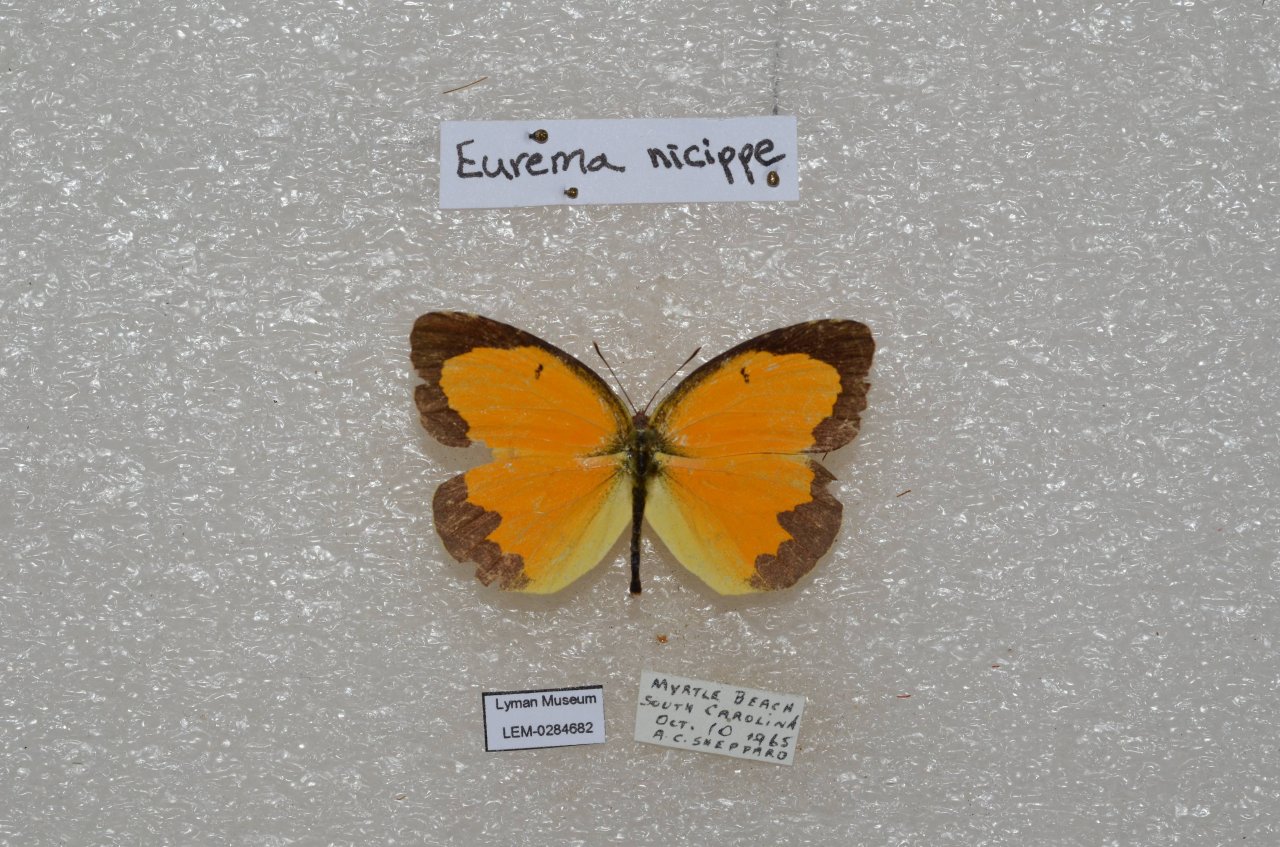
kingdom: Animalia
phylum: Arthropoda
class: Insecta
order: Lepidoptera
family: Pieridae
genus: Abaeis
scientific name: Abaeis nicippe
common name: Sleepy Orange
